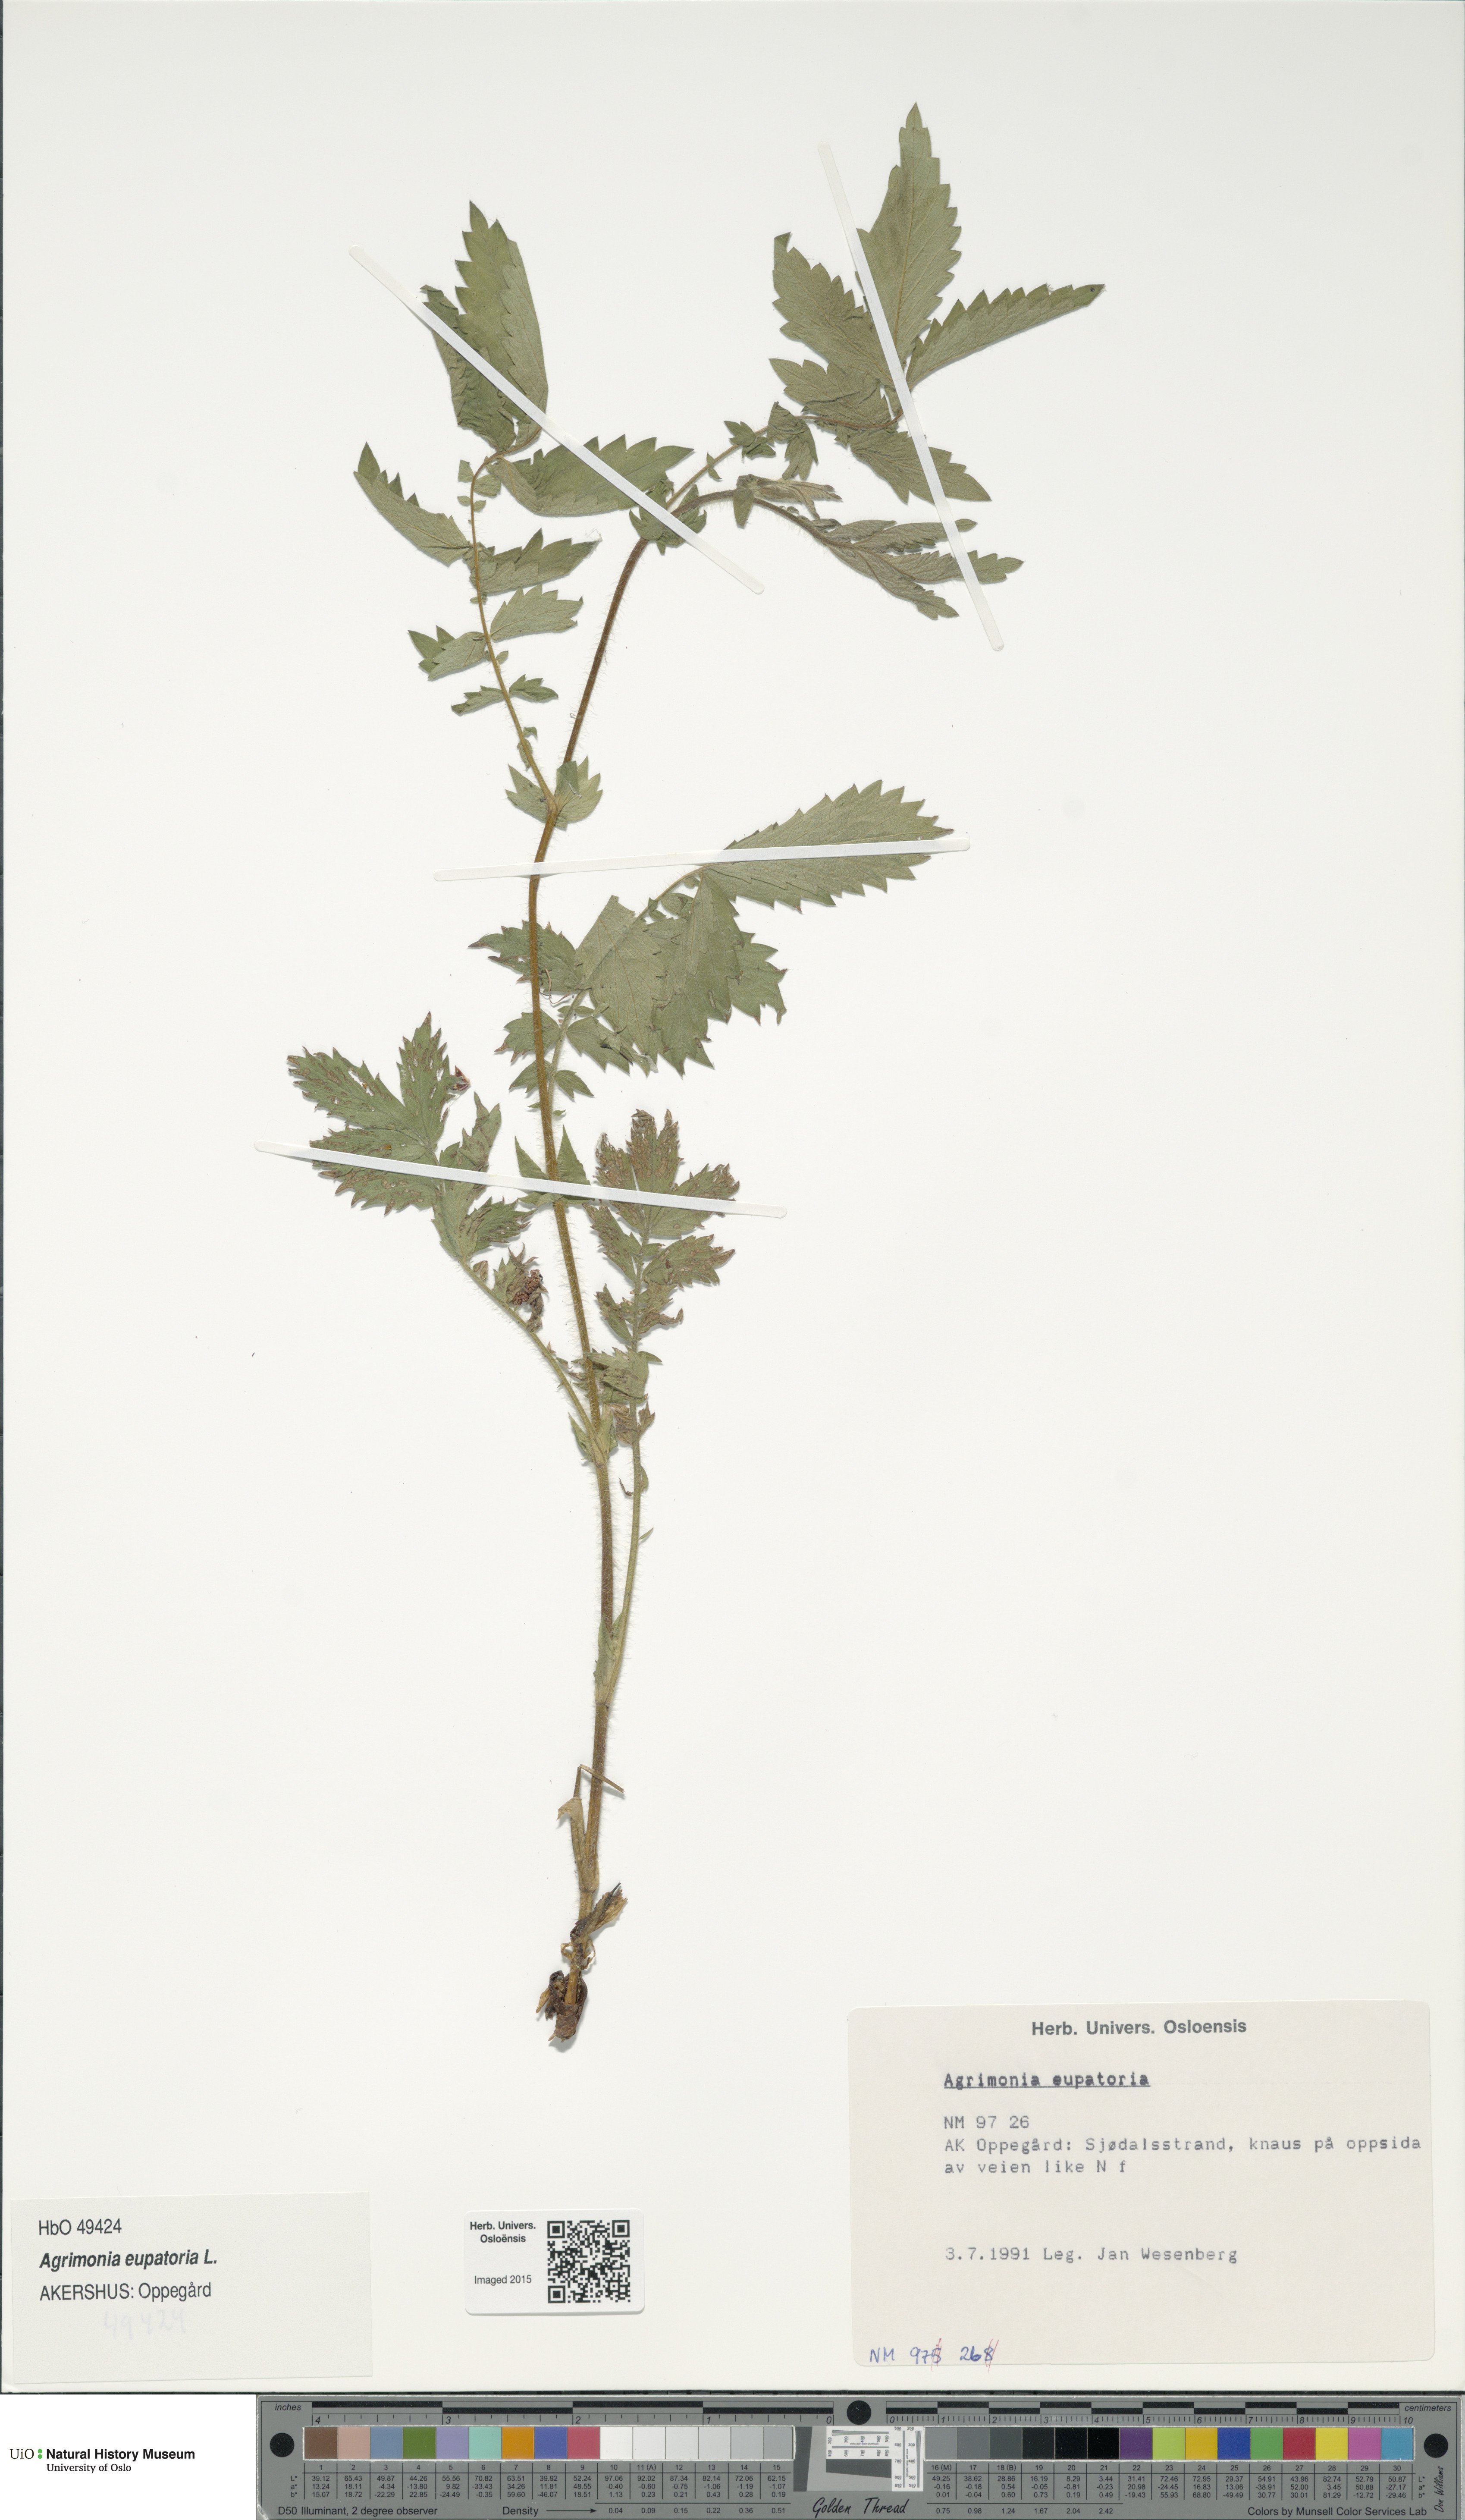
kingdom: Plantae
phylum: Tracheophyta
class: Magnoliopsida
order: Rosales
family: Rosaceae
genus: Agrimonia
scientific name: Agrimonia eupatoria
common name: Agrimony
